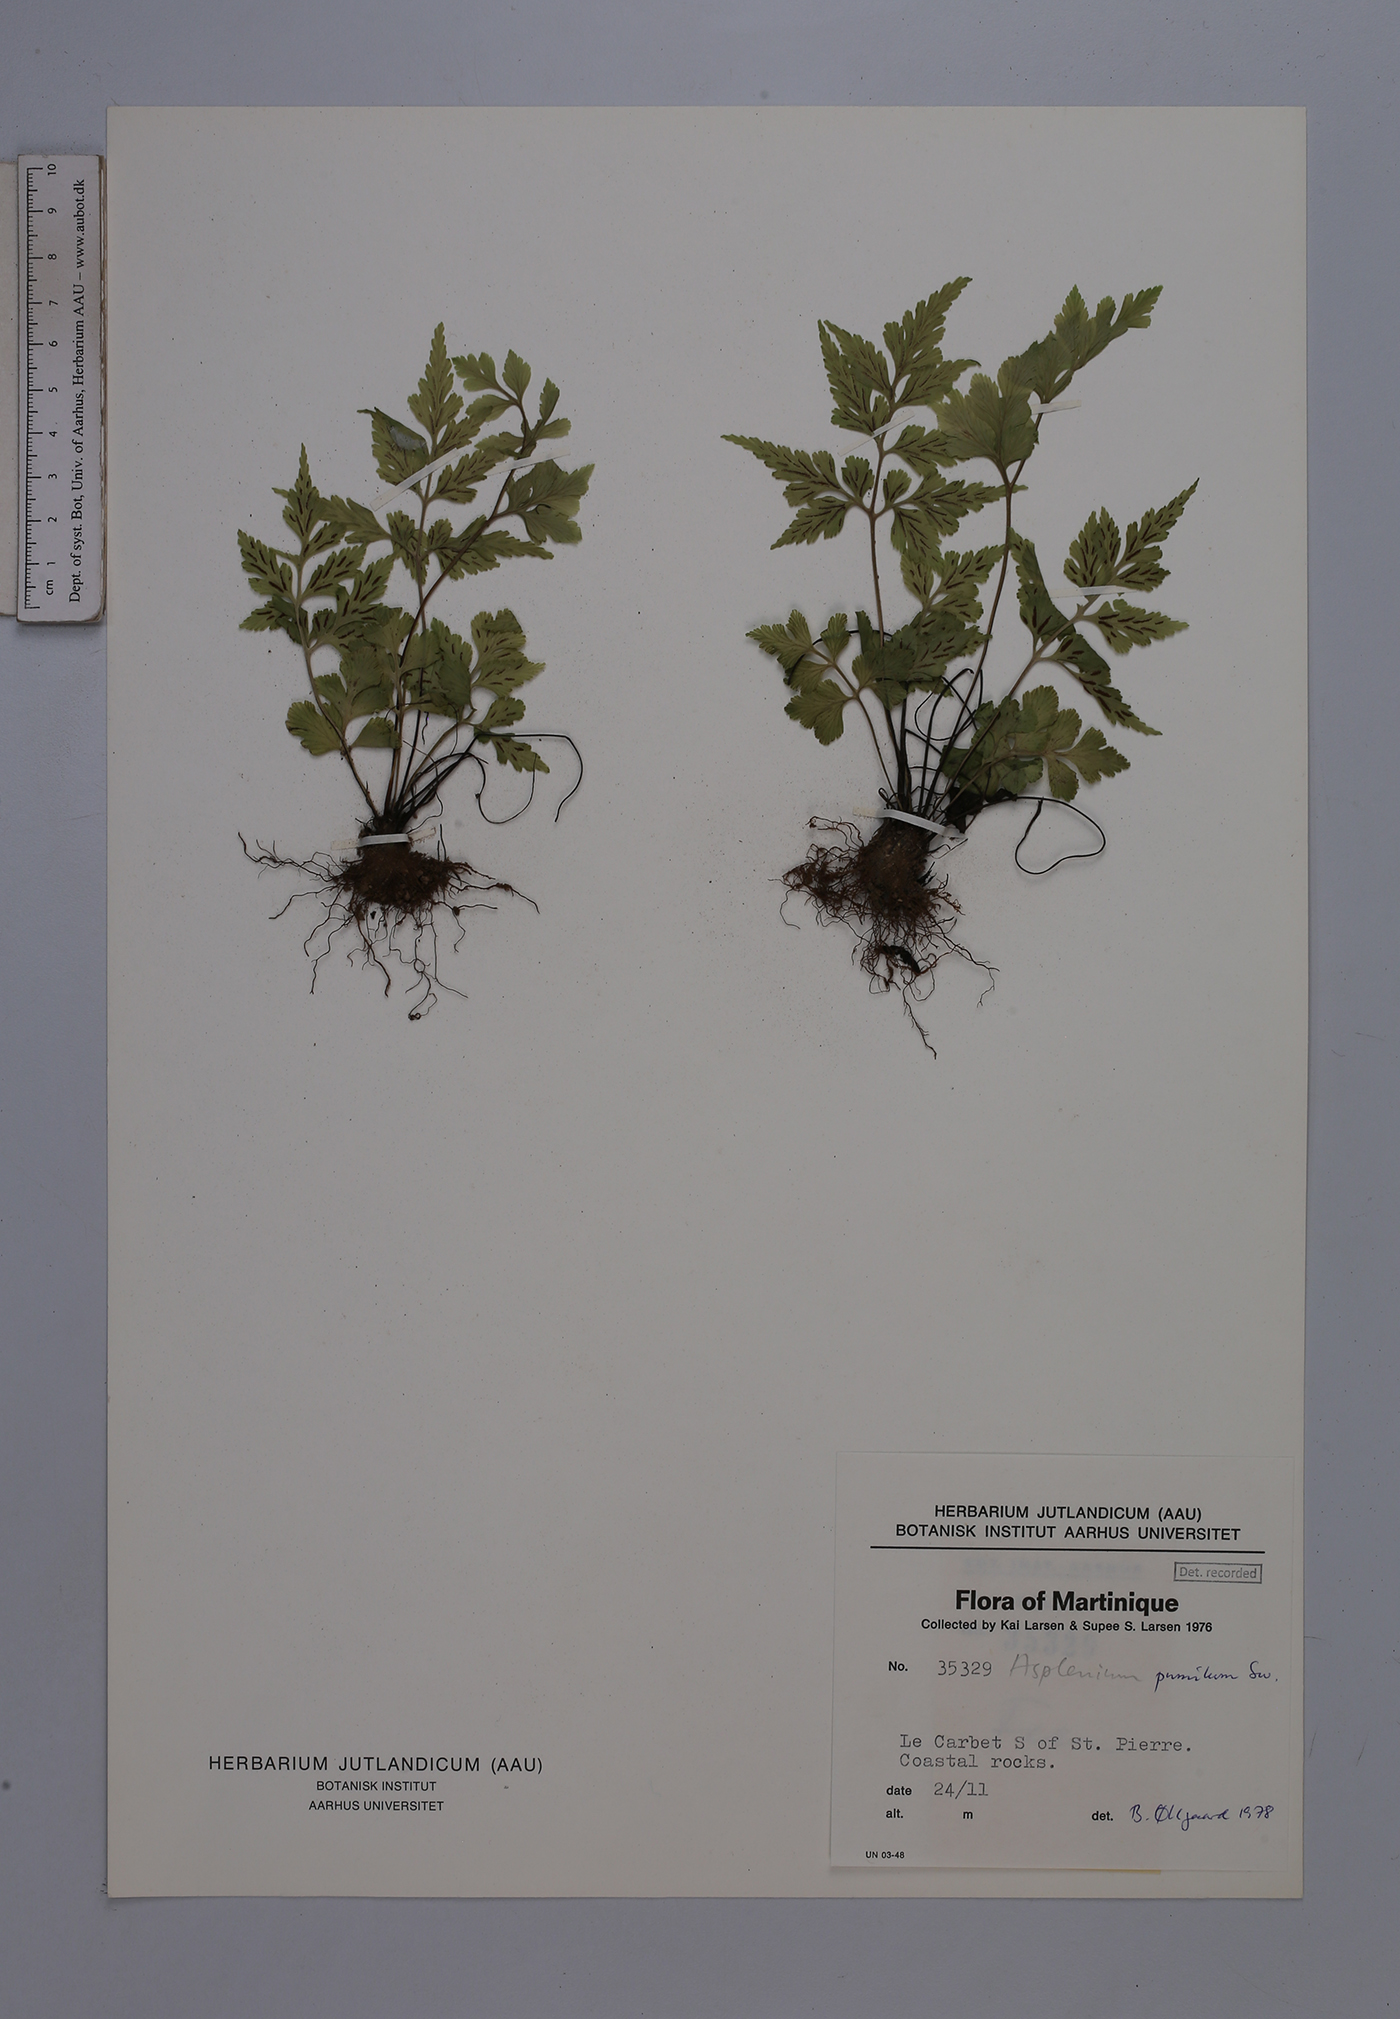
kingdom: Plantae
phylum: Tracheophyta
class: Polypodiopsida
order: Polypodiales
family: Aspleniaceae
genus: Asplenium
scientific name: Asplenium pumilum
